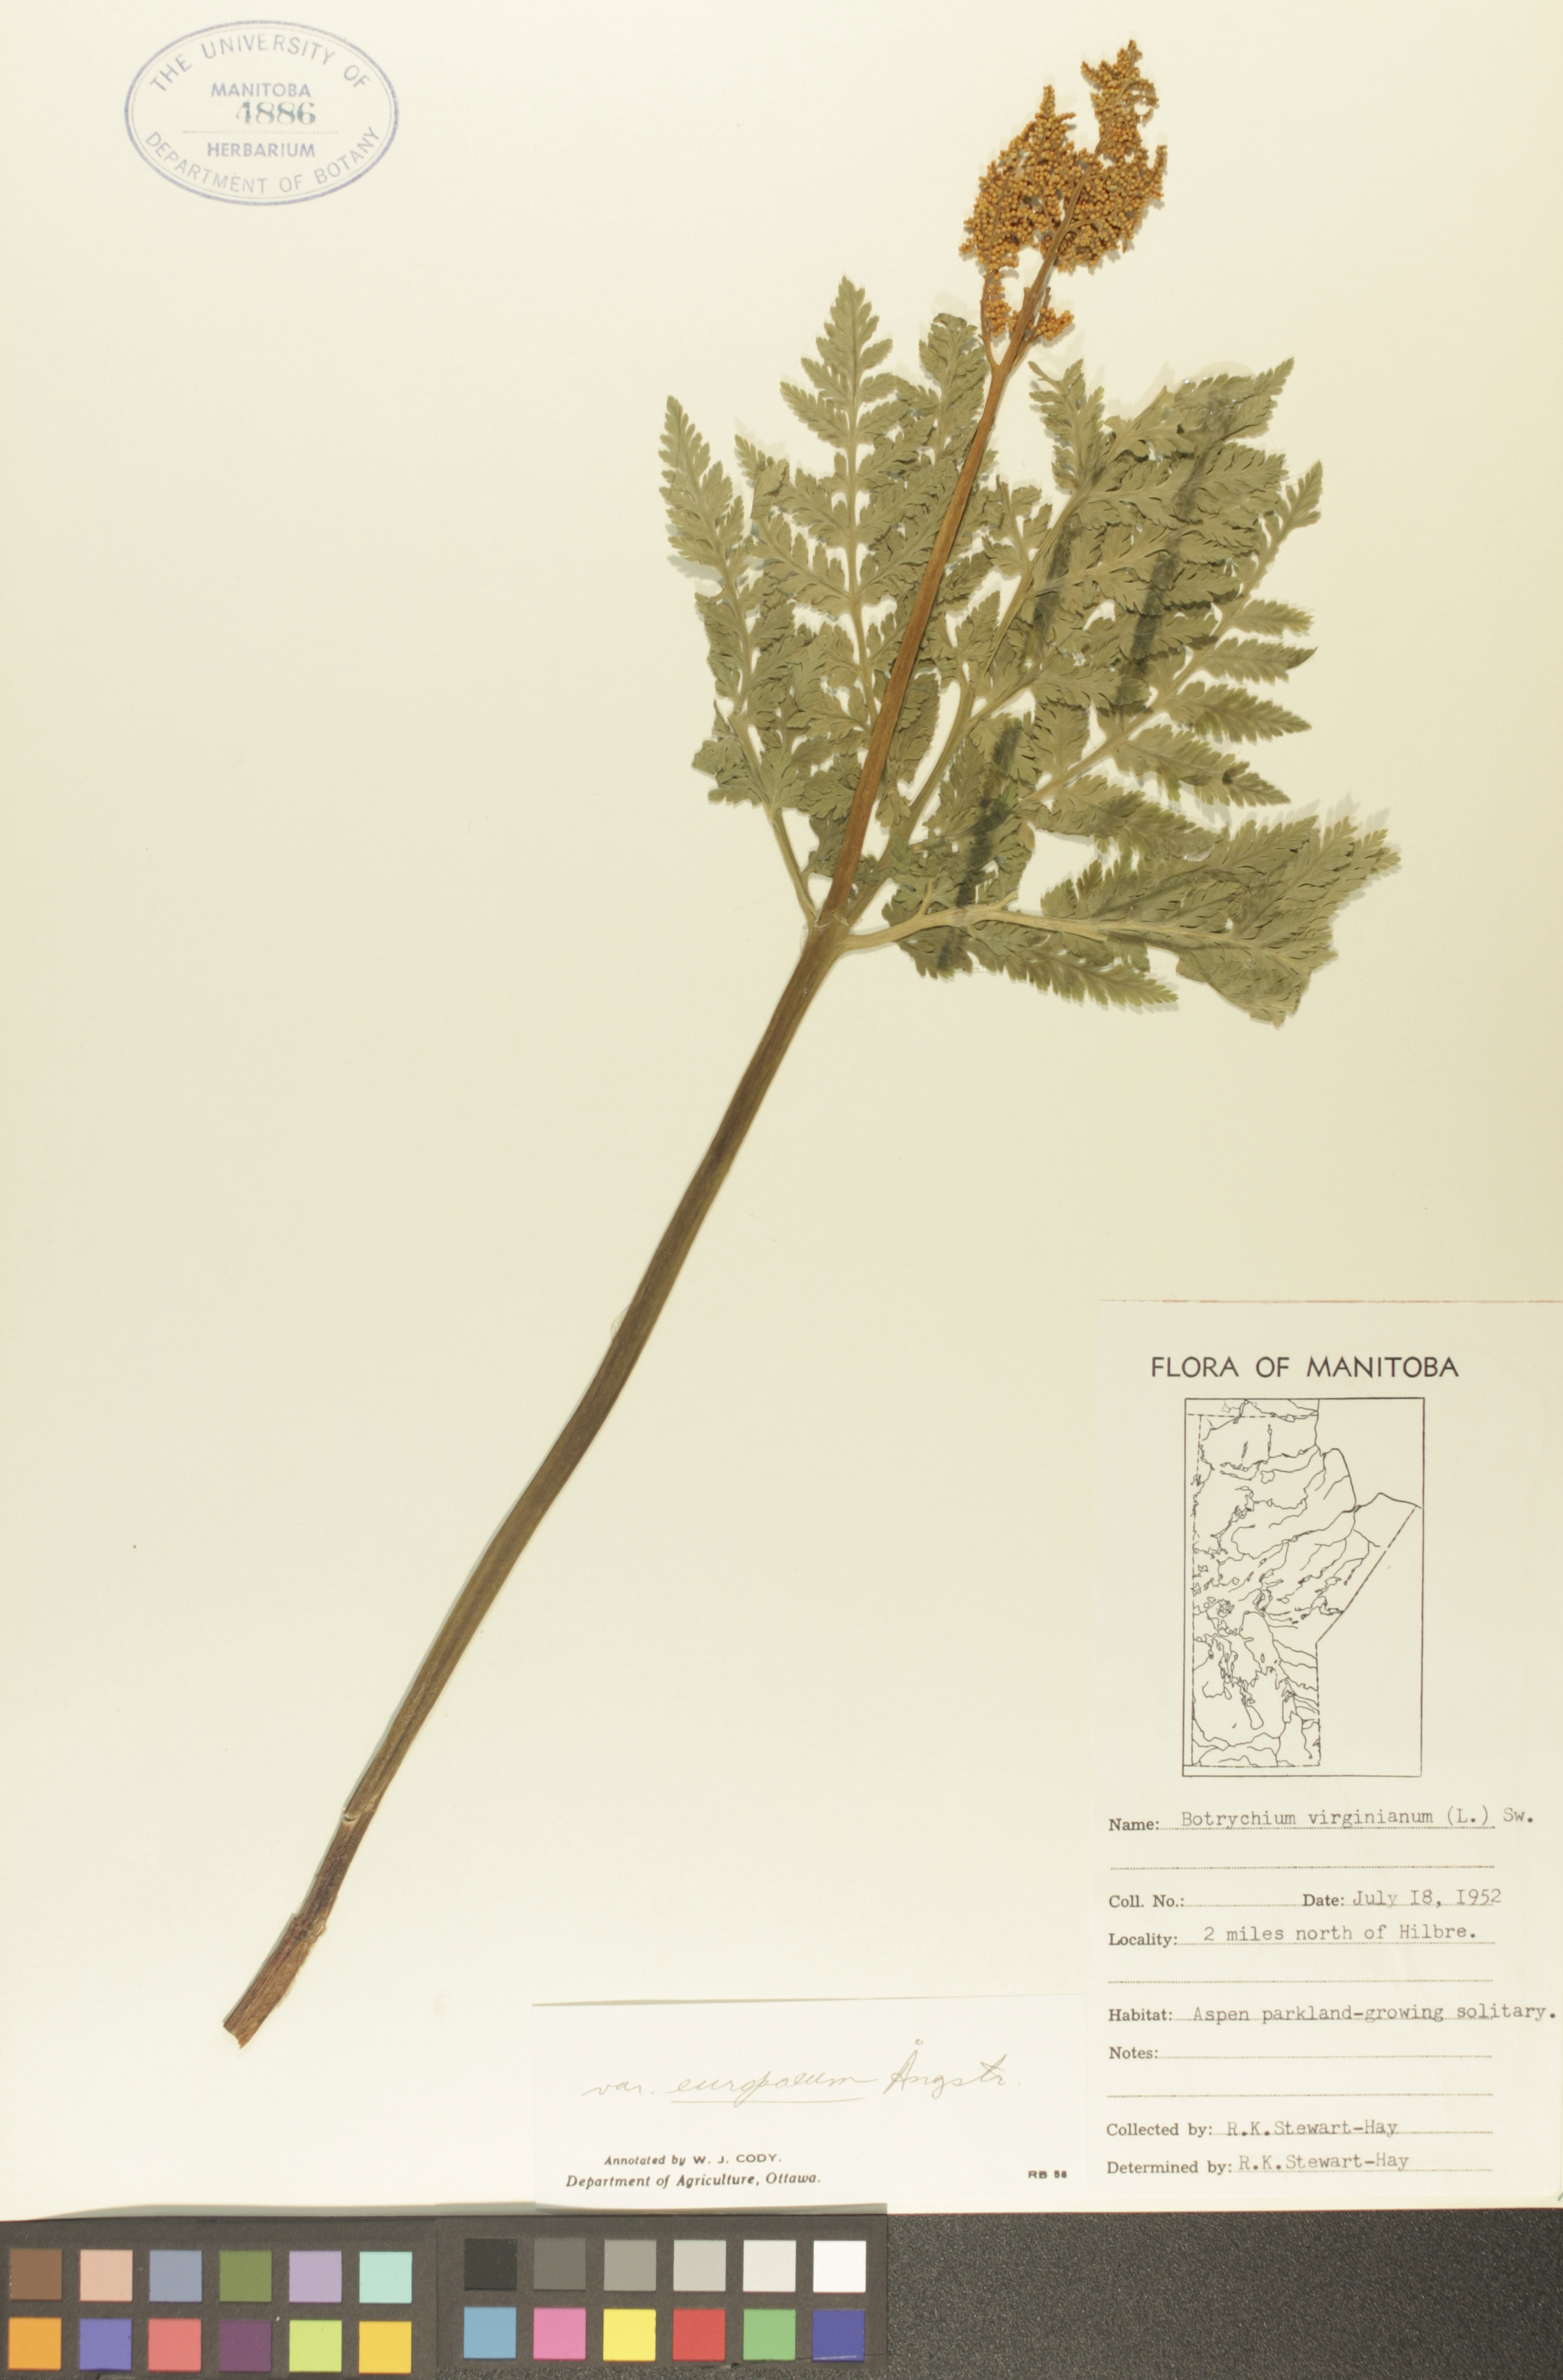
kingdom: Plantae
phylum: Tracheophyta
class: Polypodiopsida
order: Ophioglossales
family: Ophioglossaceae
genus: Botrypus
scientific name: Botrypus virginianus
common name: Common grapefern
